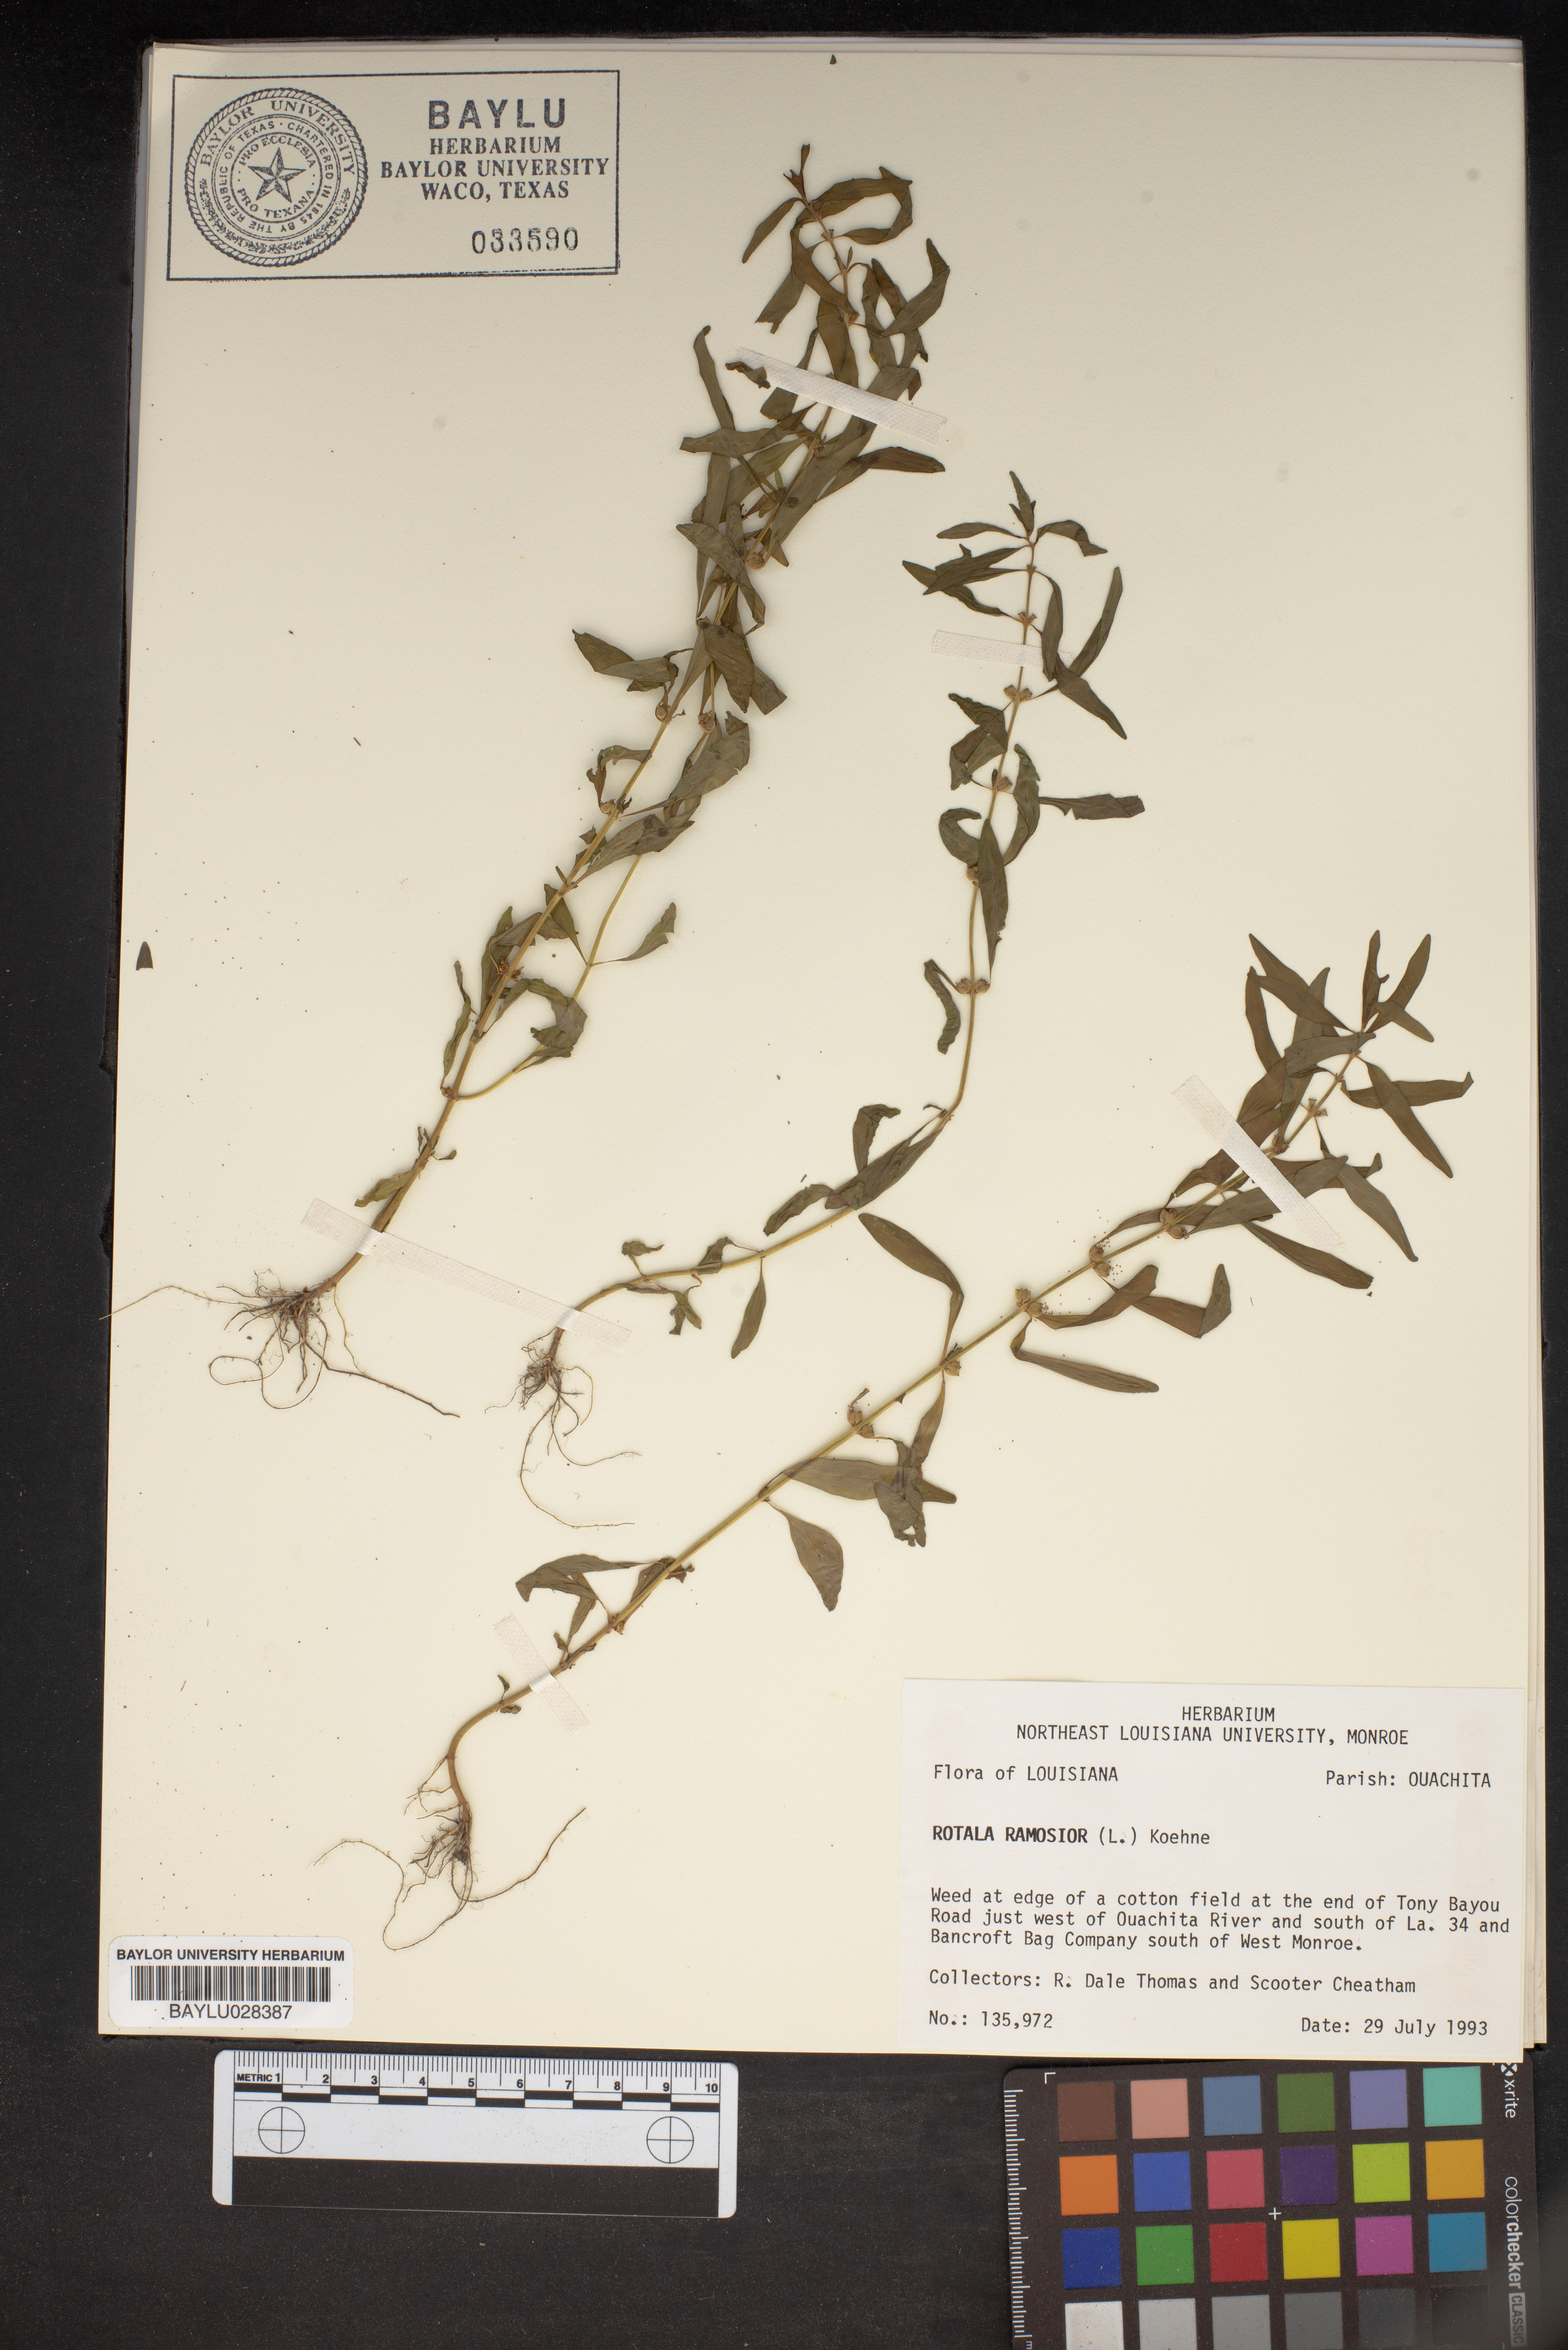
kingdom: Plantae
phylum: Tracheophyta
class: Magnoliopsida
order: Myrtales
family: Lythraceae
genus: Rotala
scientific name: Rotala ramosior
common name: Lowland rotala
